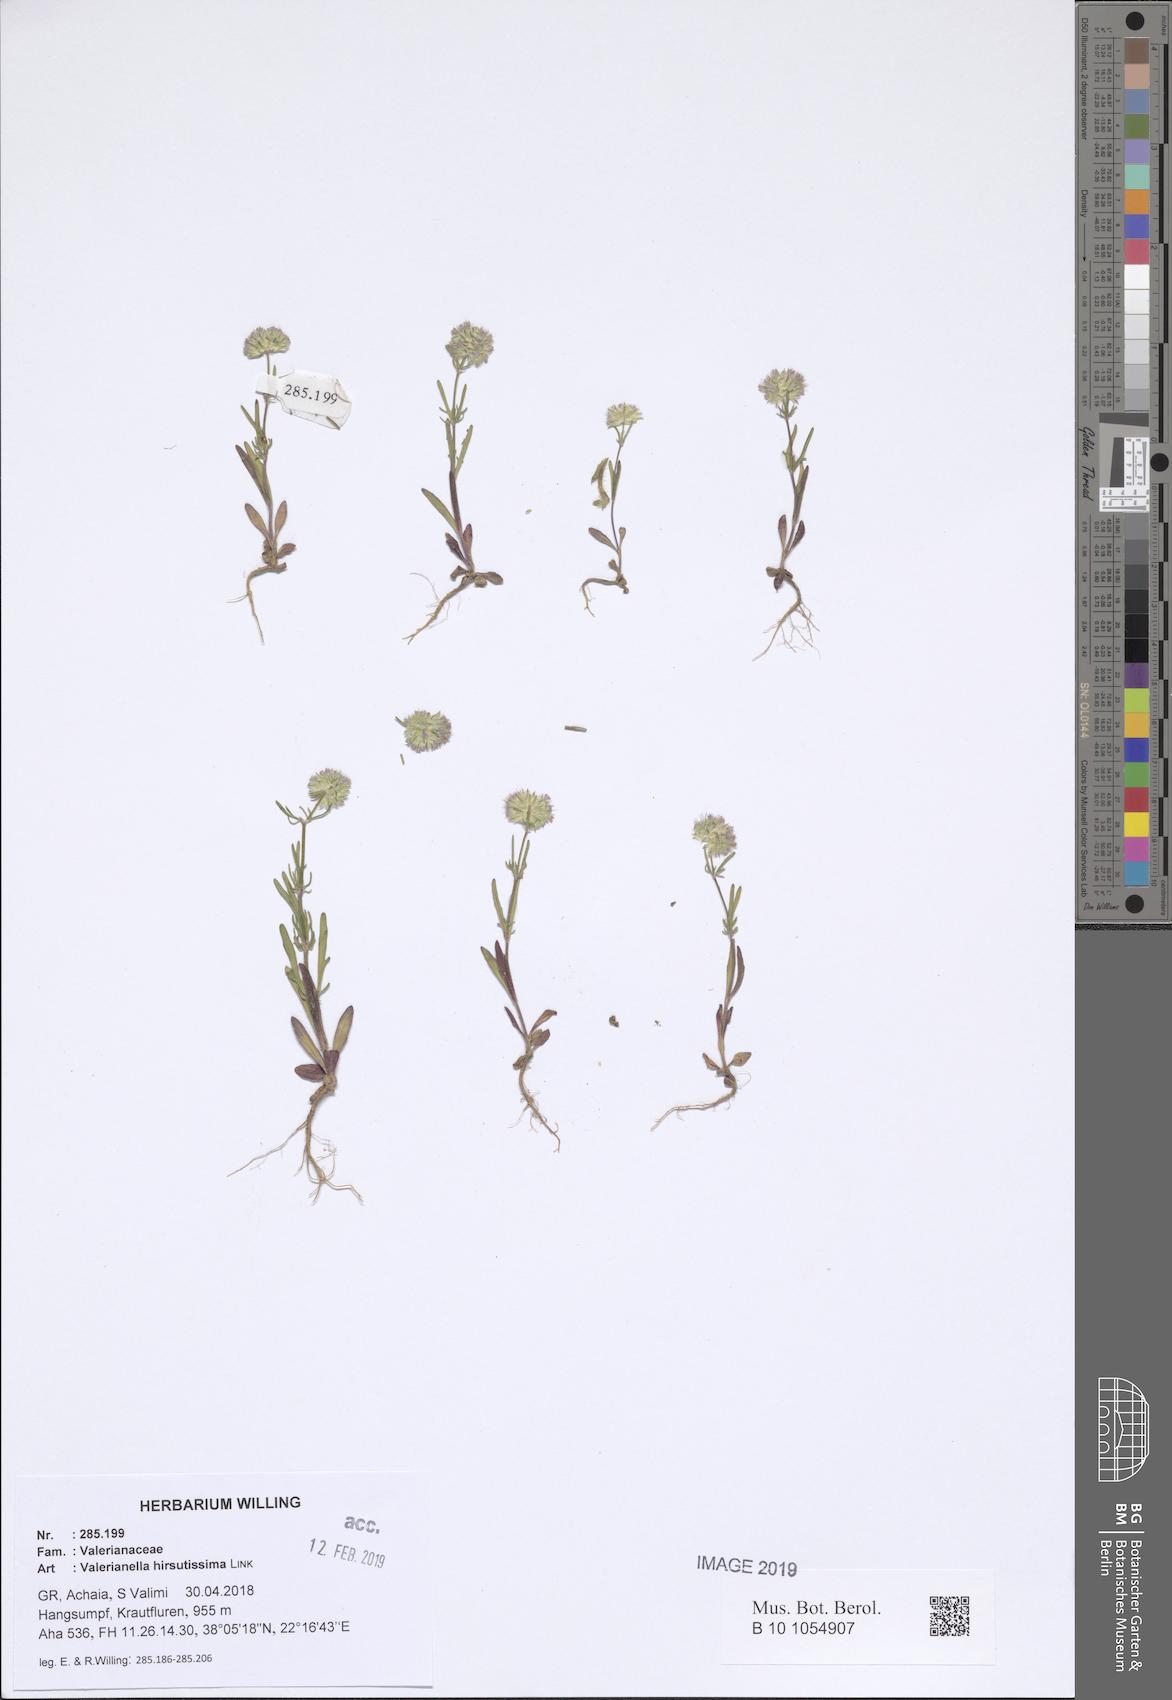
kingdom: Plantae
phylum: Tracheophyta
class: Magnoliopsida
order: Dipsacales
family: Caprifoliaceae
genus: Valerianella
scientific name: Valerianella hirsutissima
